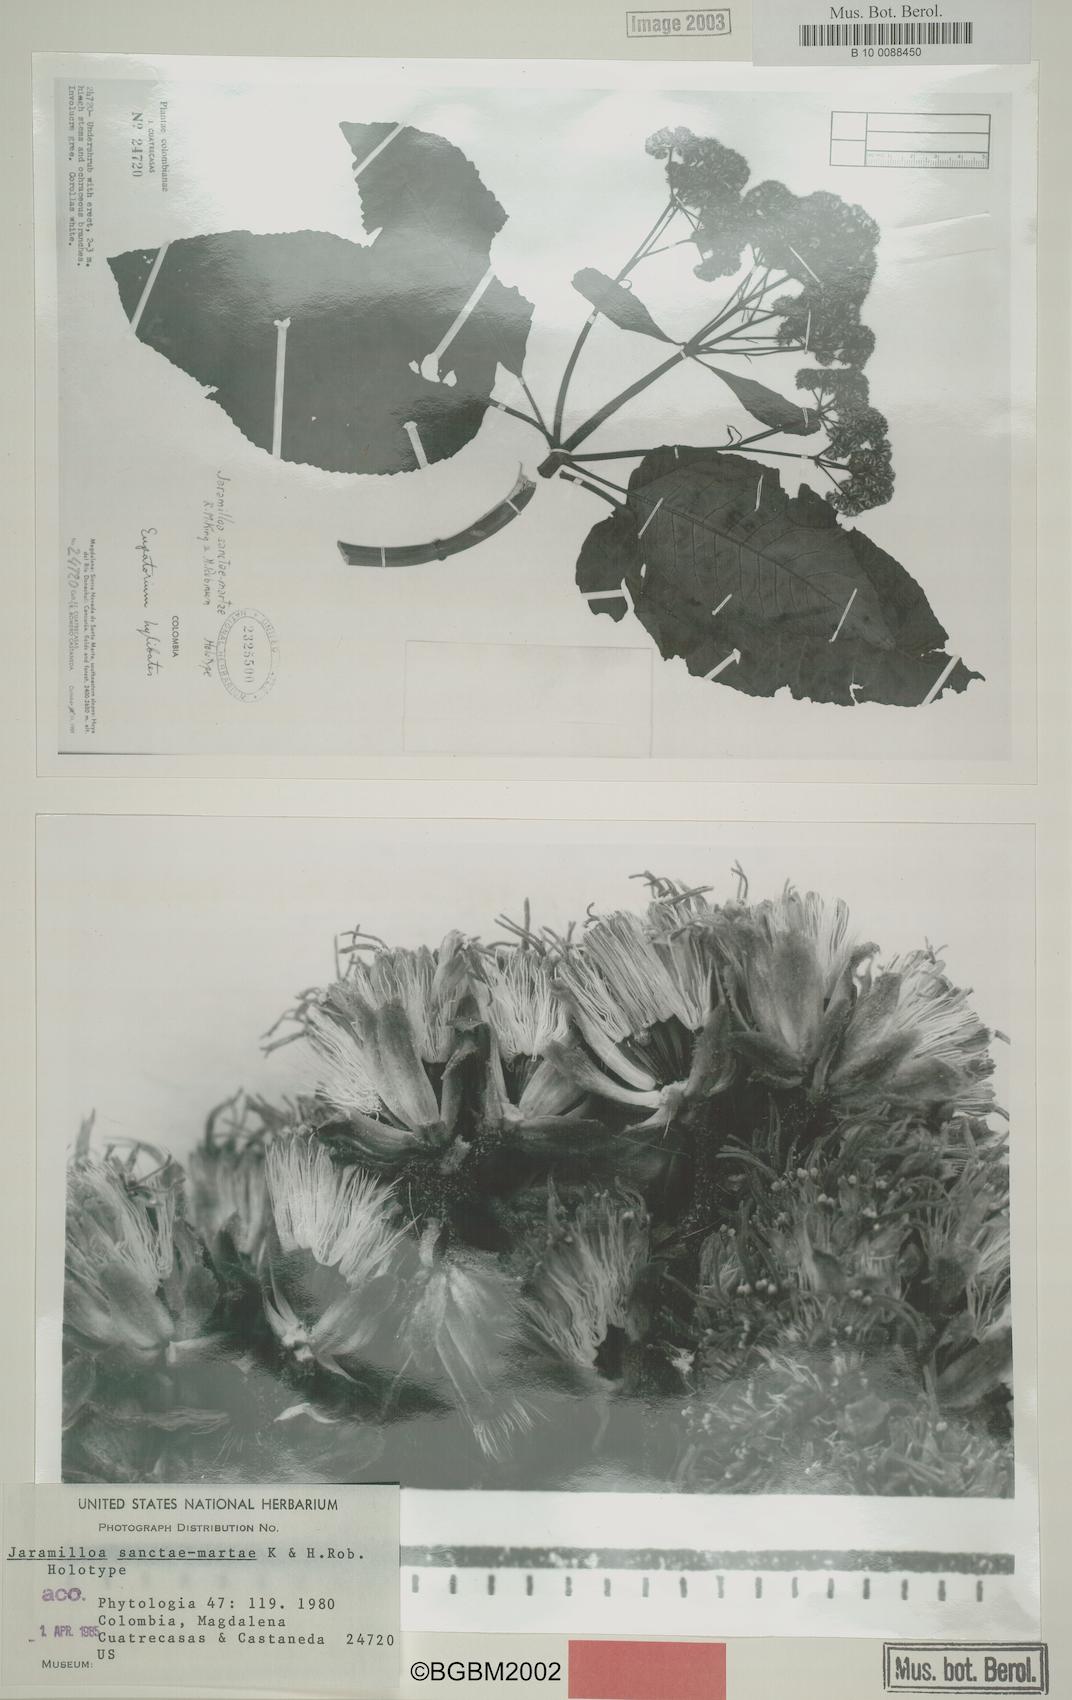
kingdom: Plantae
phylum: Tracheophyta
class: Magnoliopsida
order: Asterales
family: Asteraceae
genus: Jaramilloa
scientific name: Jaramilloa sanctae-martae
